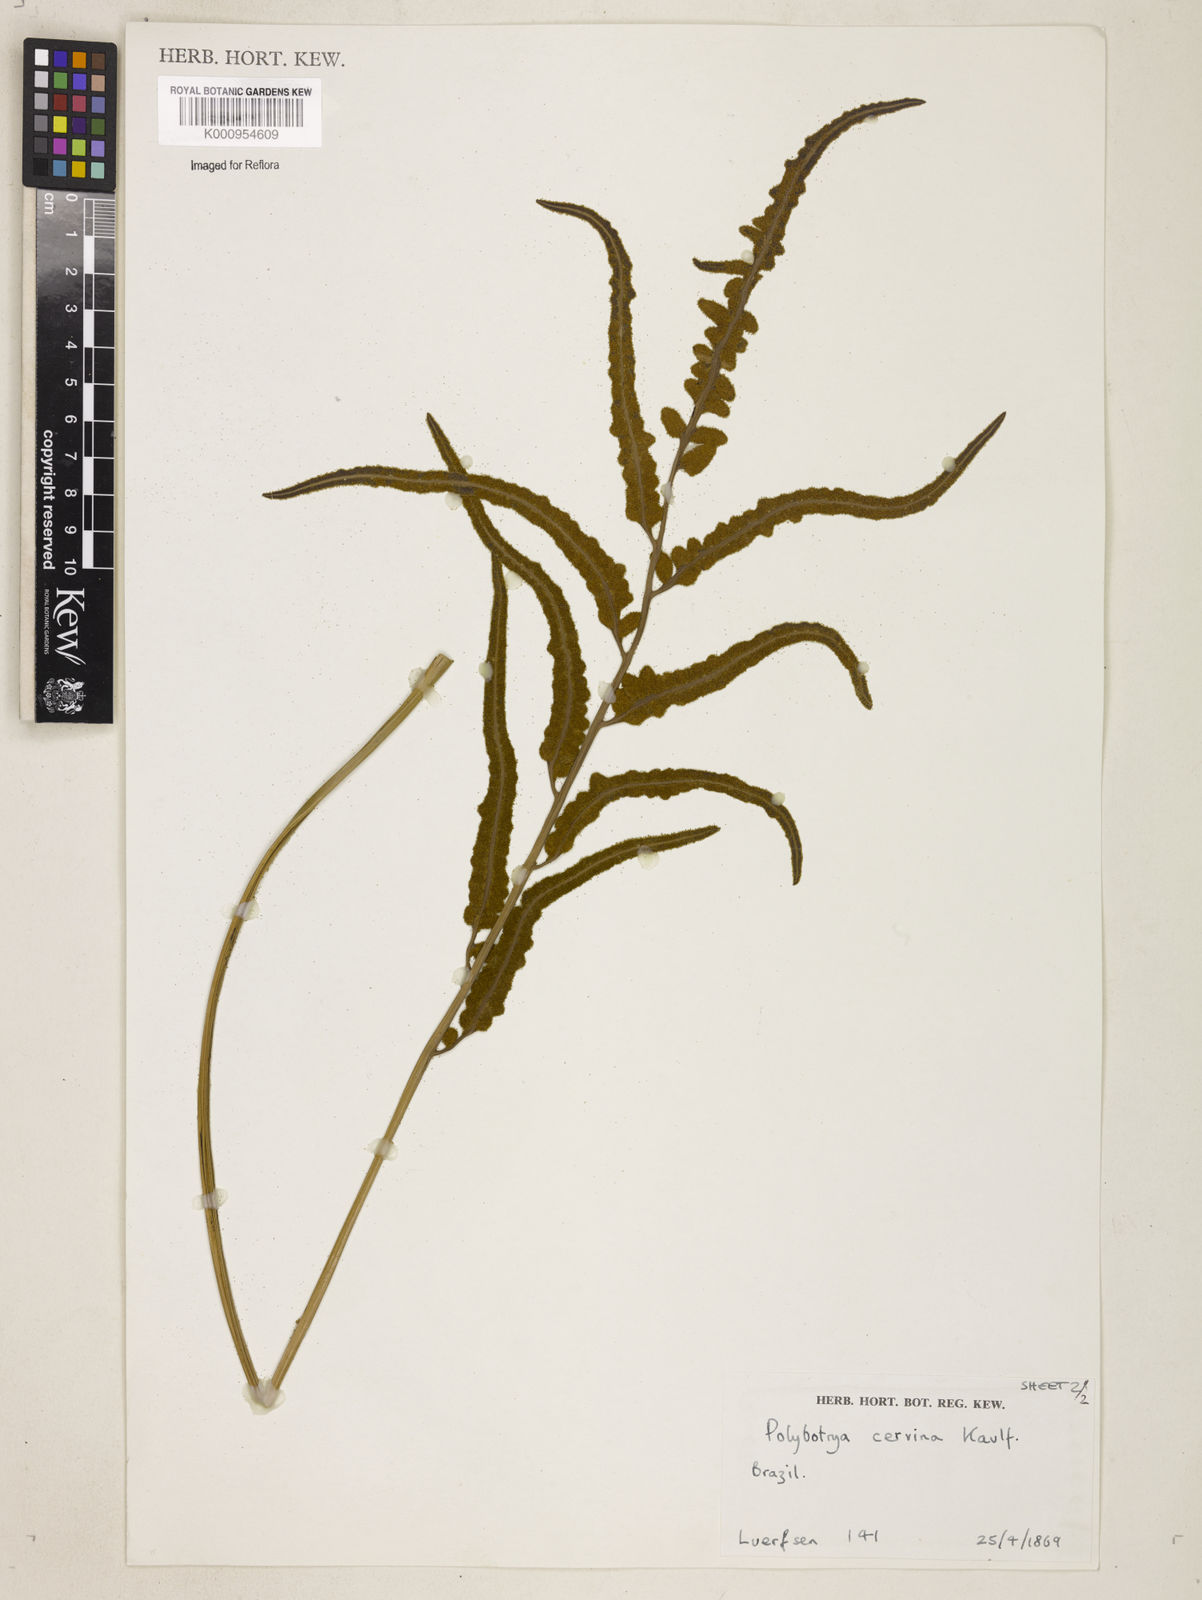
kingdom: Plantae
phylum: Tracheophyta
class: Polypodiopsida
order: Polypodiales
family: Dryopteridaceae
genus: Polystichum
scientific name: Polystichum
